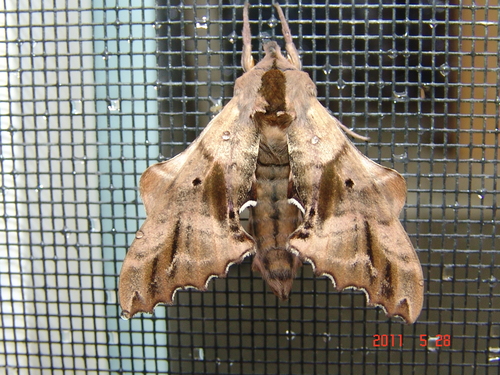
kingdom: Animalia
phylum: Arthropoda
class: Insecta
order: Lepidoptera
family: Sphingidae
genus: Paonias
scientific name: Paonias excaecata
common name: Blind-eyed sphinx
